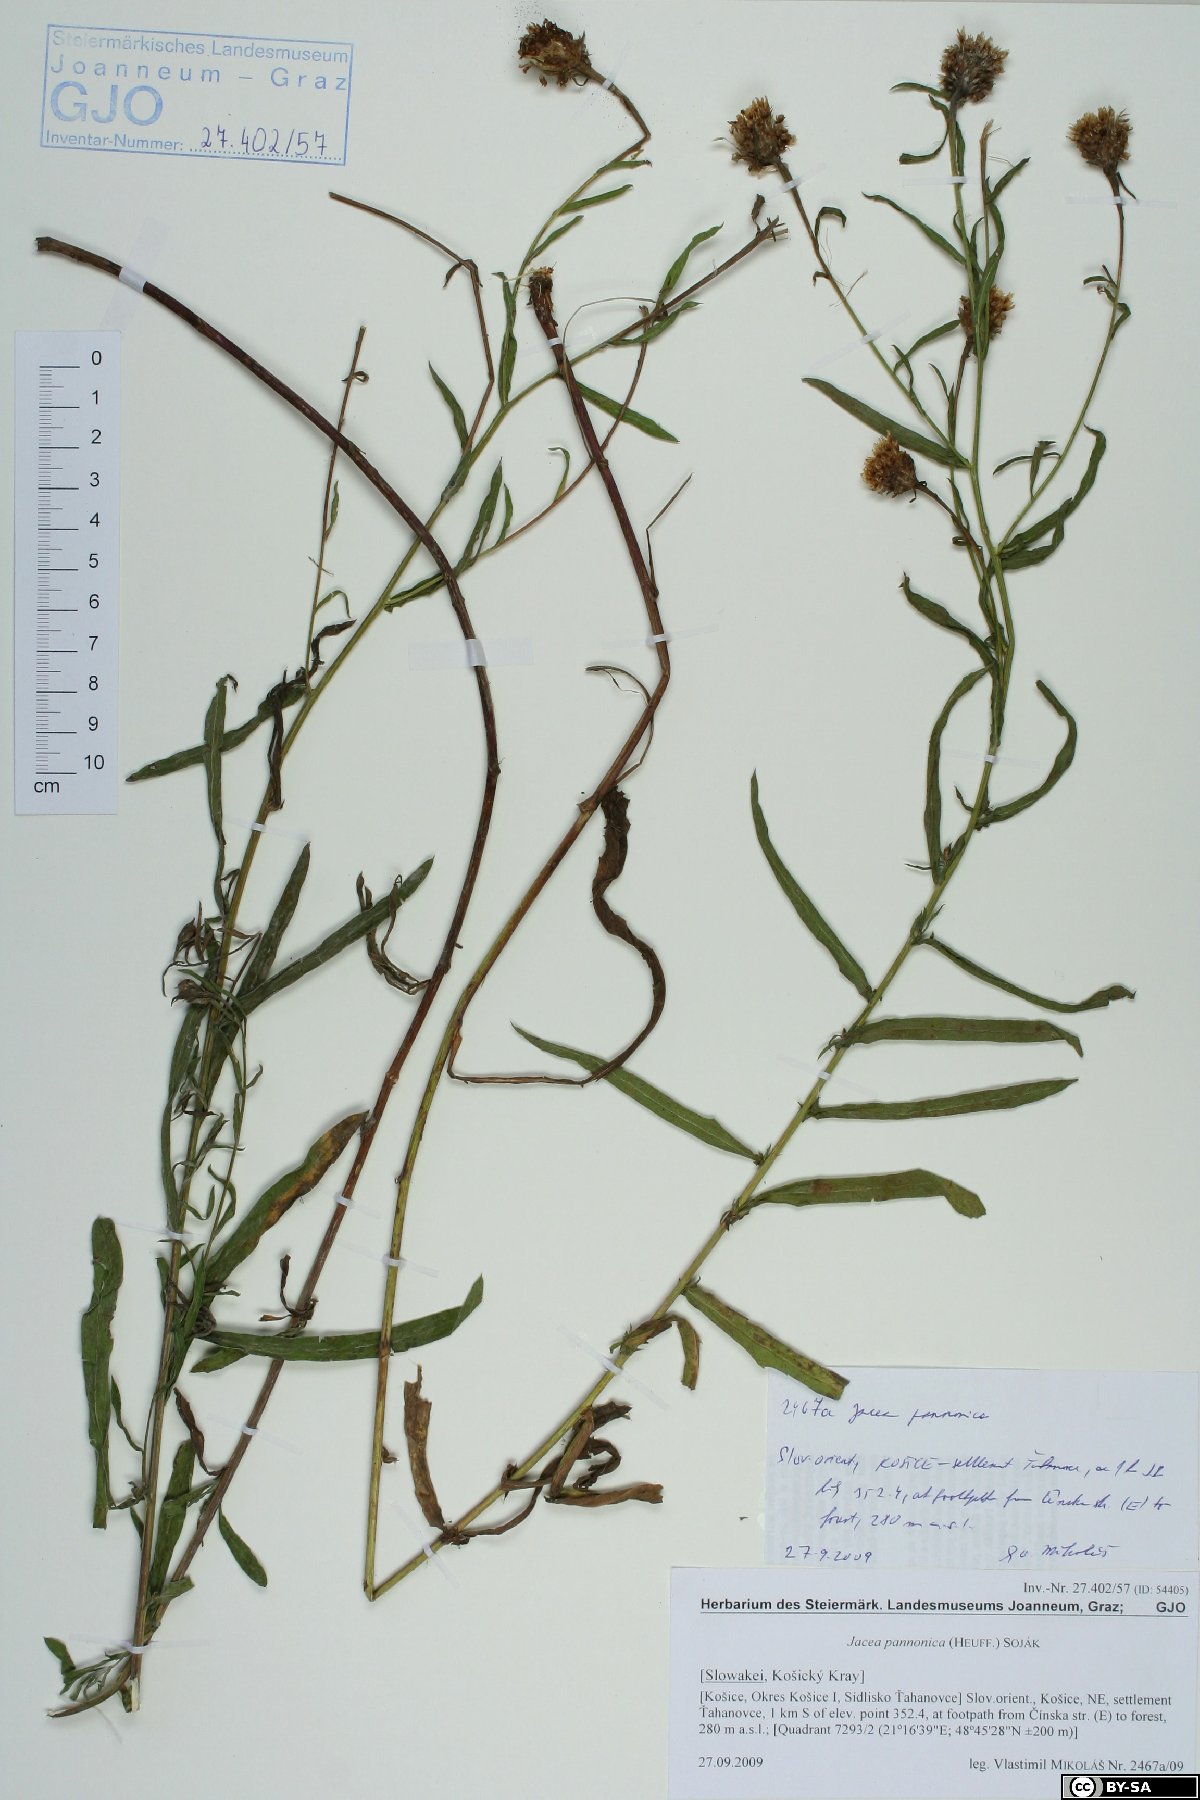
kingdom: Plantae
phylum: Tracheophyta
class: Magnoliopsida
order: Asterales
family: Asteraceae
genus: Centaurea
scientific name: Centaurea pannonica
